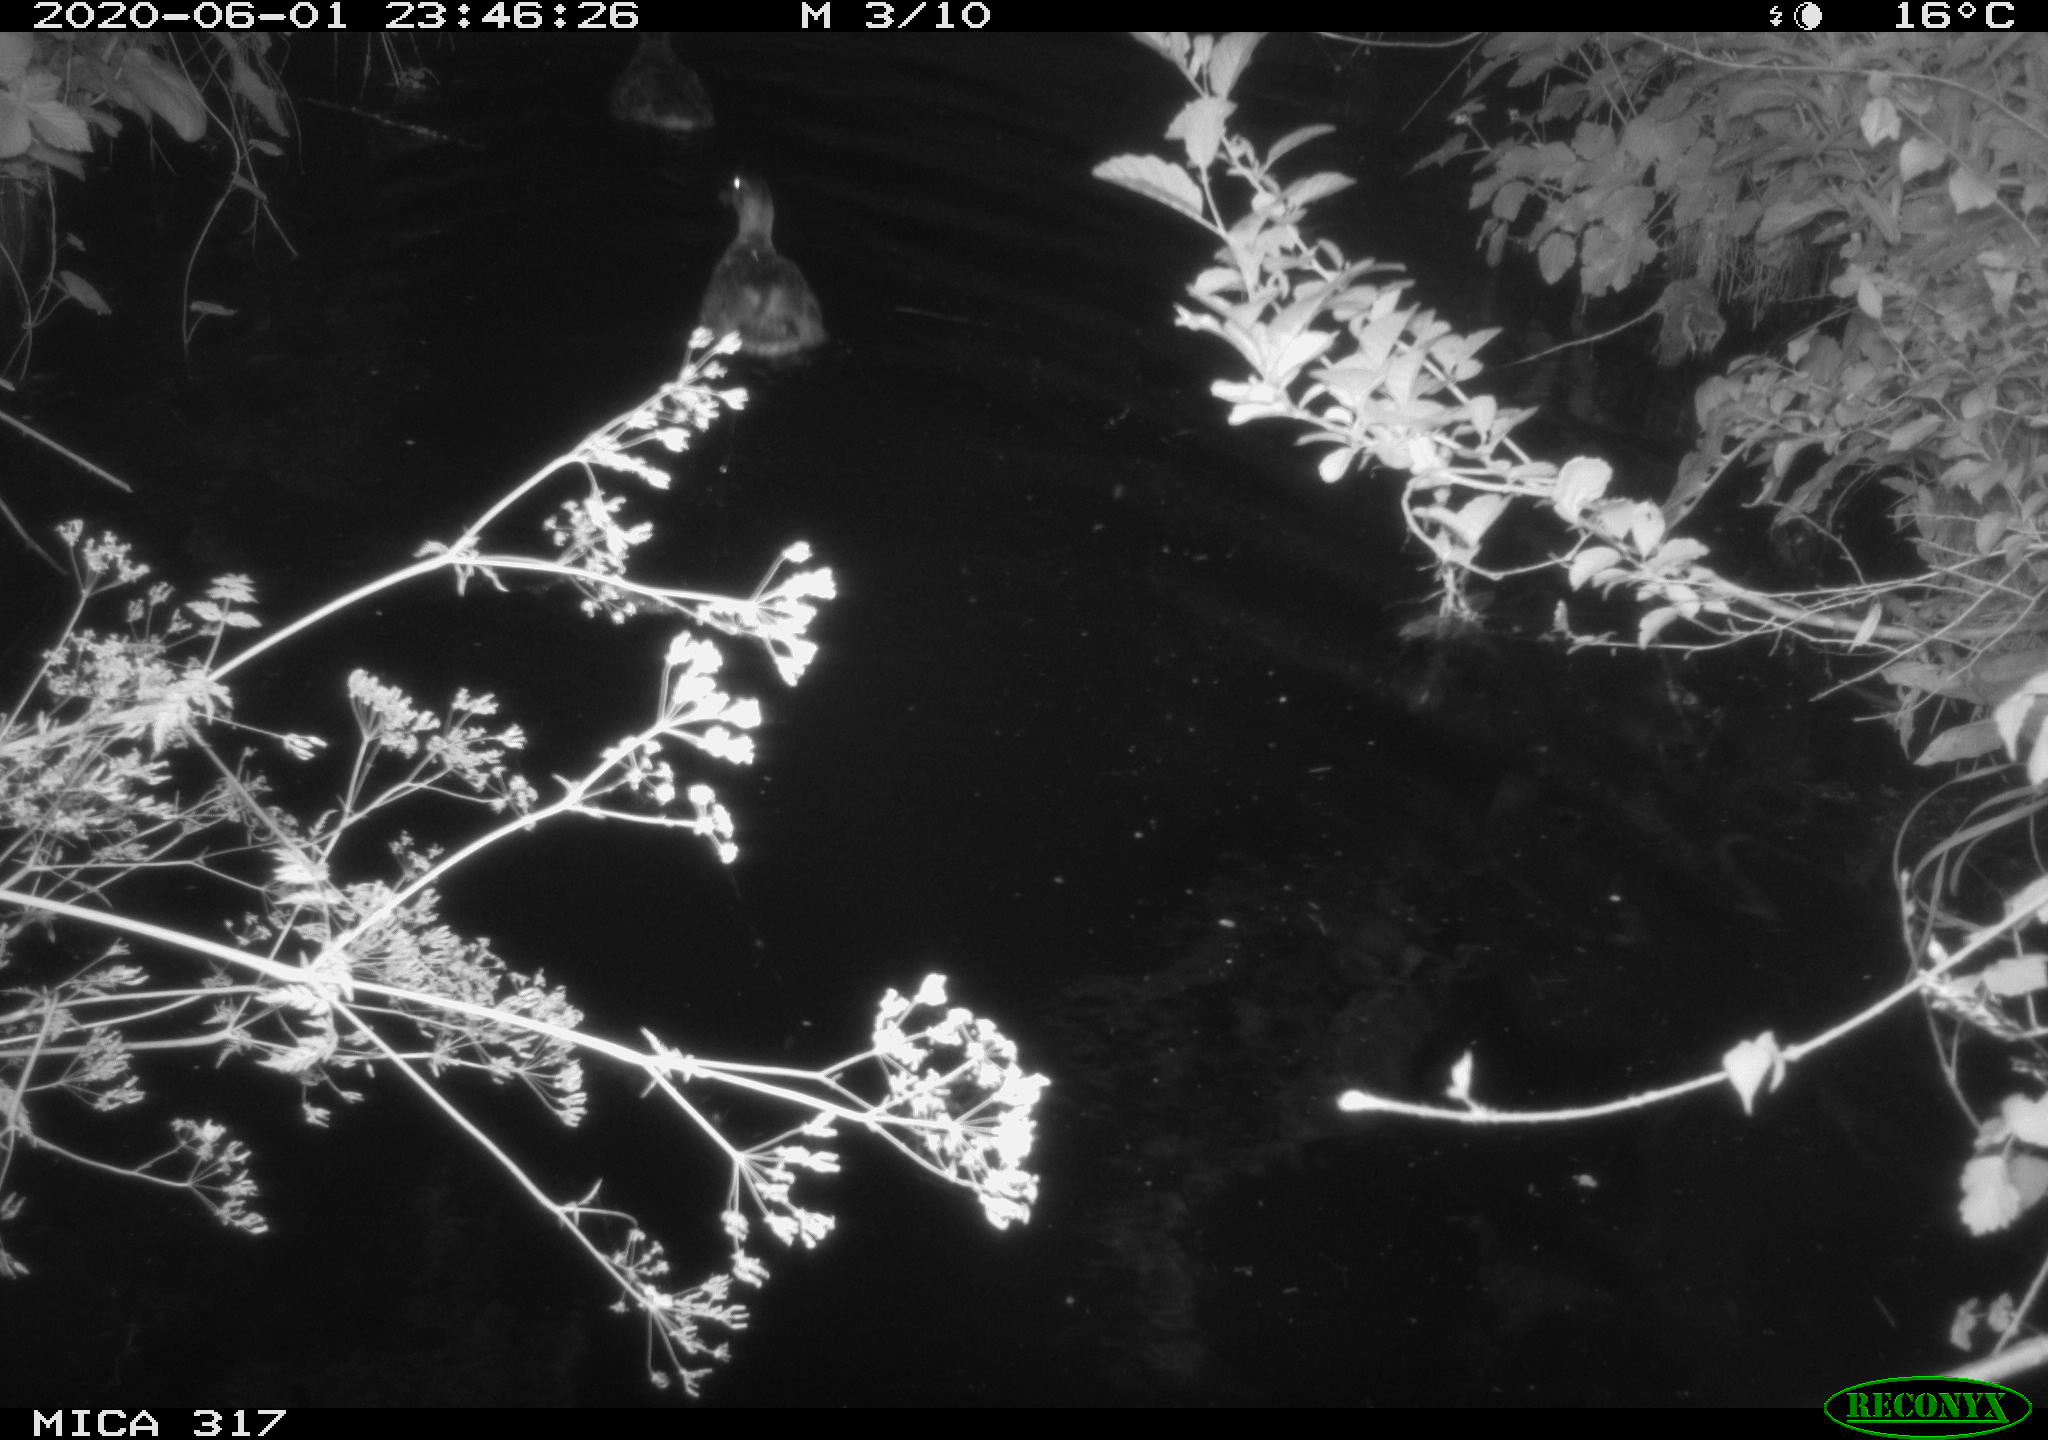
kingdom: Animalia
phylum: Chordata
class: Aves
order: Anseriformes
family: Anatidae
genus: Anas
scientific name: Anas platyrhynchos
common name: Mallard
